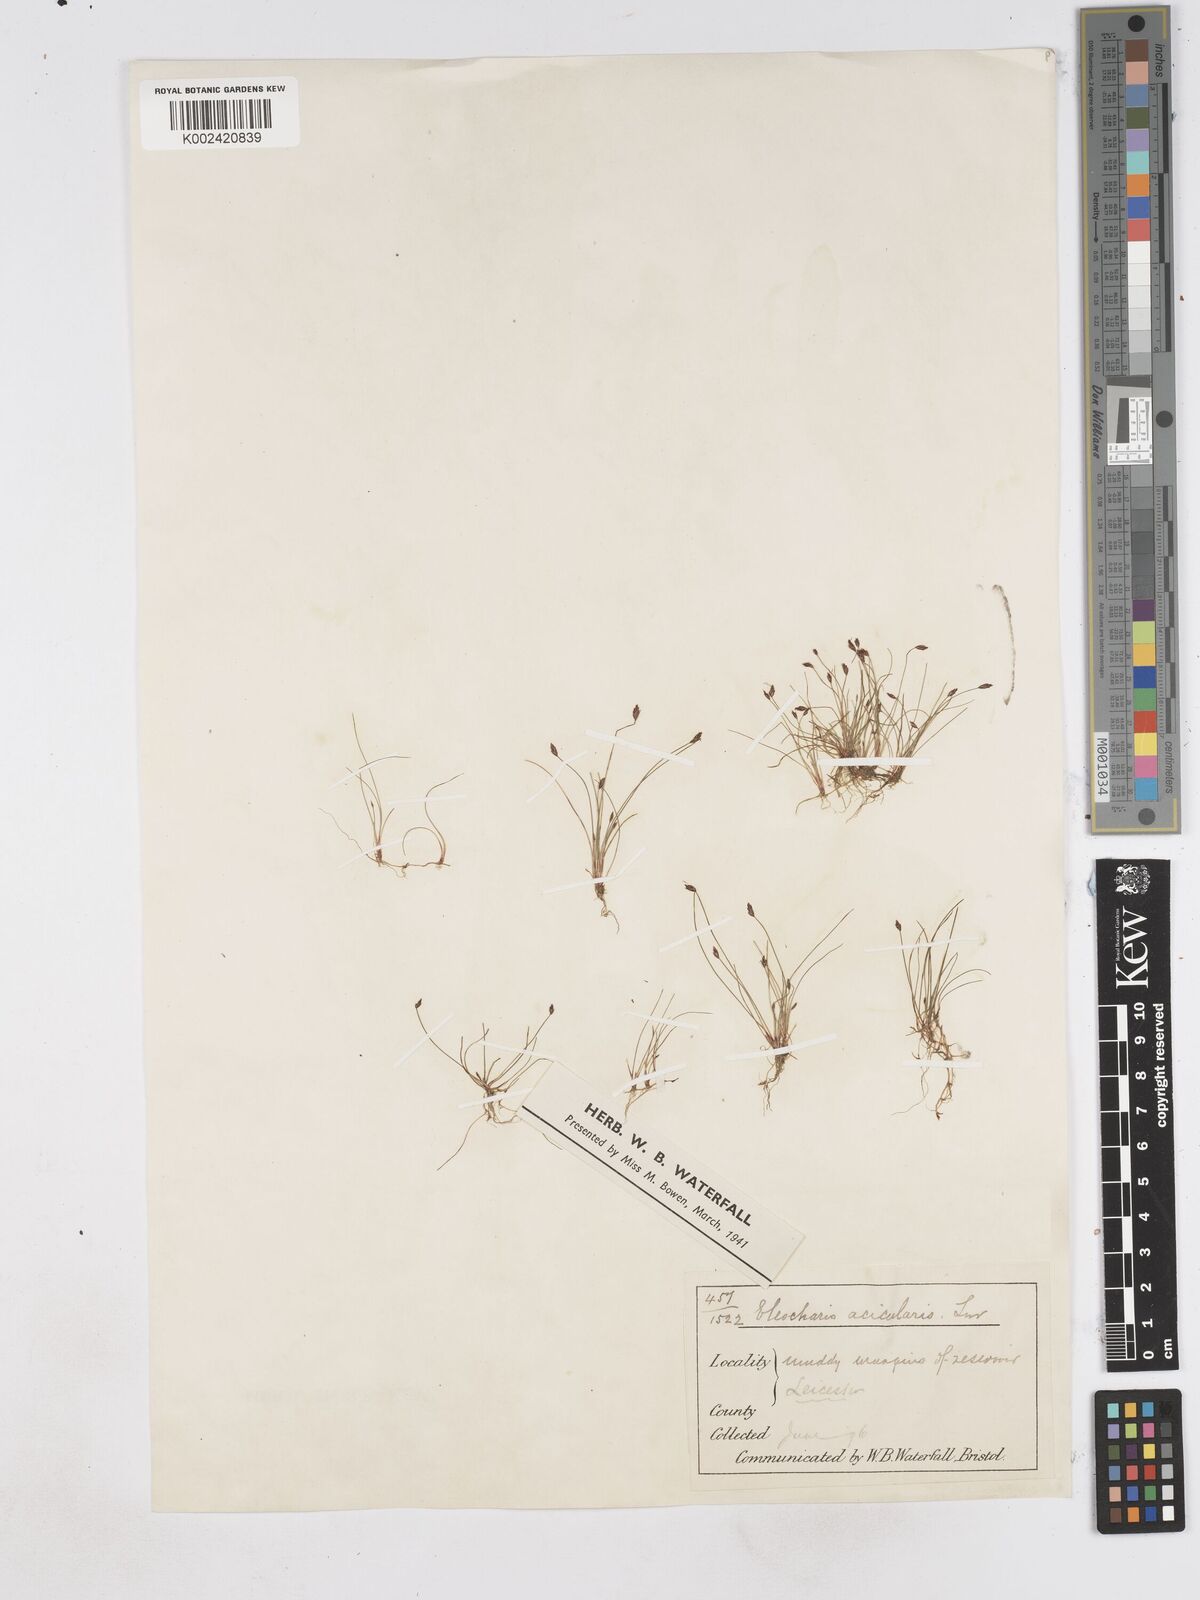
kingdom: Plantae
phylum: Tracheophyta
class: Liliopsida
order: Poales
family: Cyperaceae
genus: Eleocharis
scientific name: Eleocharis acicularis
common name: Needle spike-rush
